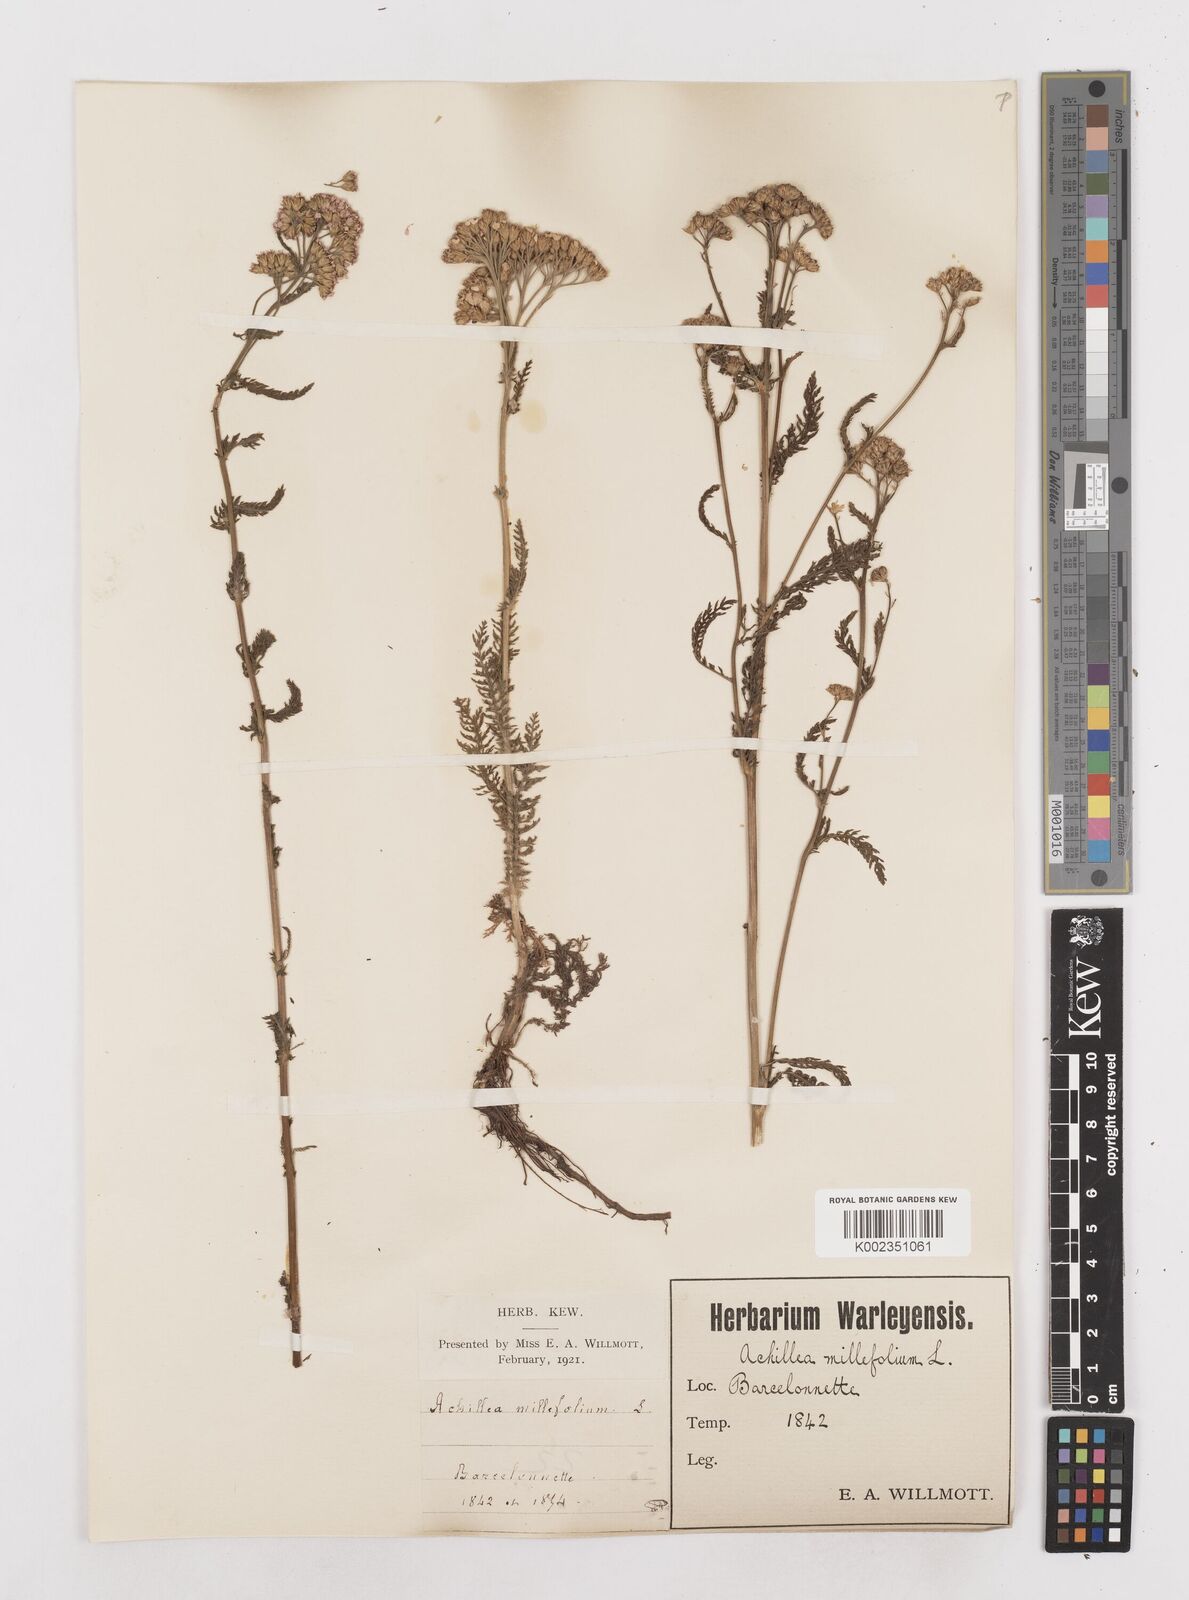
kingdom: Plantae
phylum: Tracheophyta
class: Magnoliopsida
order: Asterales
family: Asteraceae
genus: Achillea
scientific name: Achillea millefolium
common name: Yarrow
